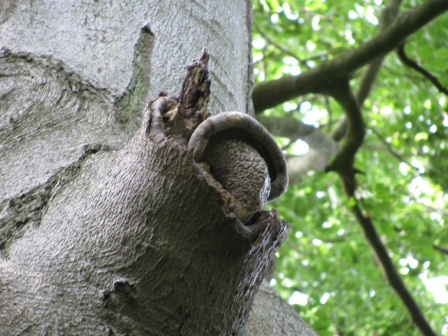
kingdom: Fungi
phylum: Basidiomycota
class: Agaricomycetes
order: Polyporales
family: Polyporaceae
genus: Cerioporus
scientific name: Cerioporus squamosus
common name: skællet stilkporesvamp
